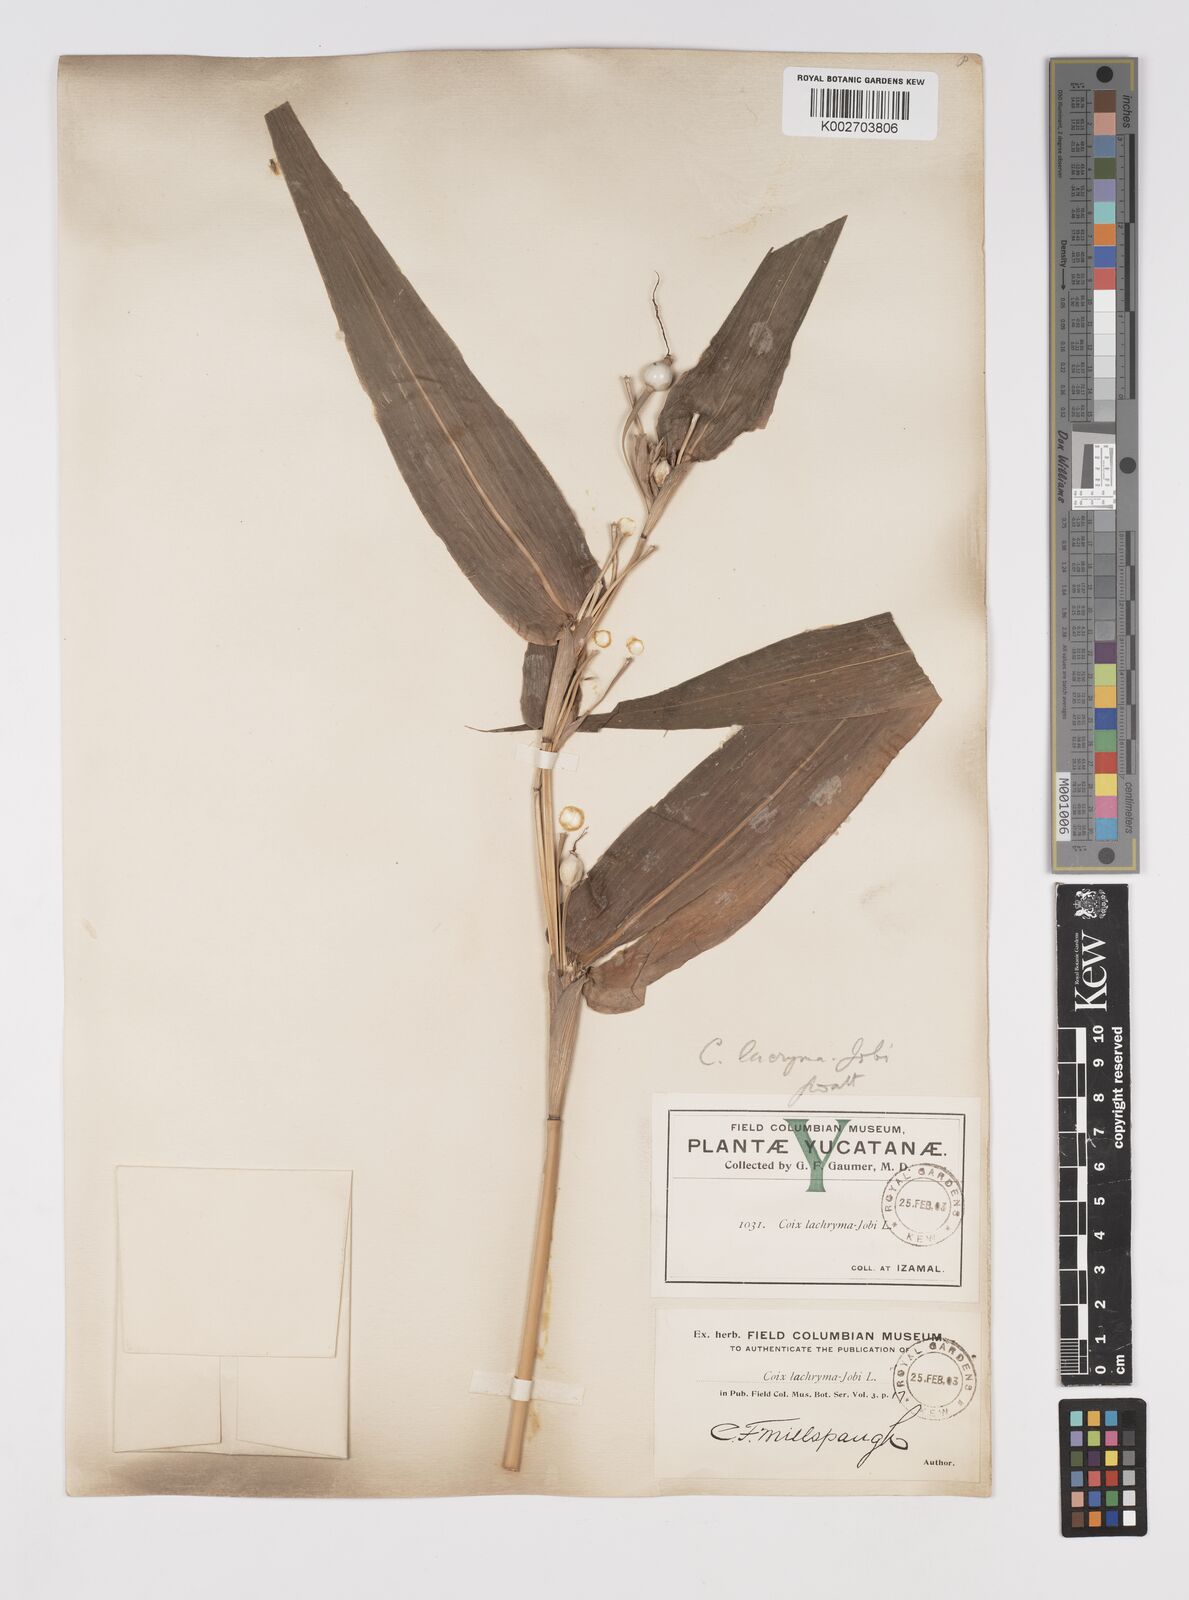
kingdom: Plantae
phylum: Tracheophyta
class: Liliopsida
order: Poales
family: Poaceae
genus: Coix
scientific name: Coix lacryma-jobi
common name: Job's tears
